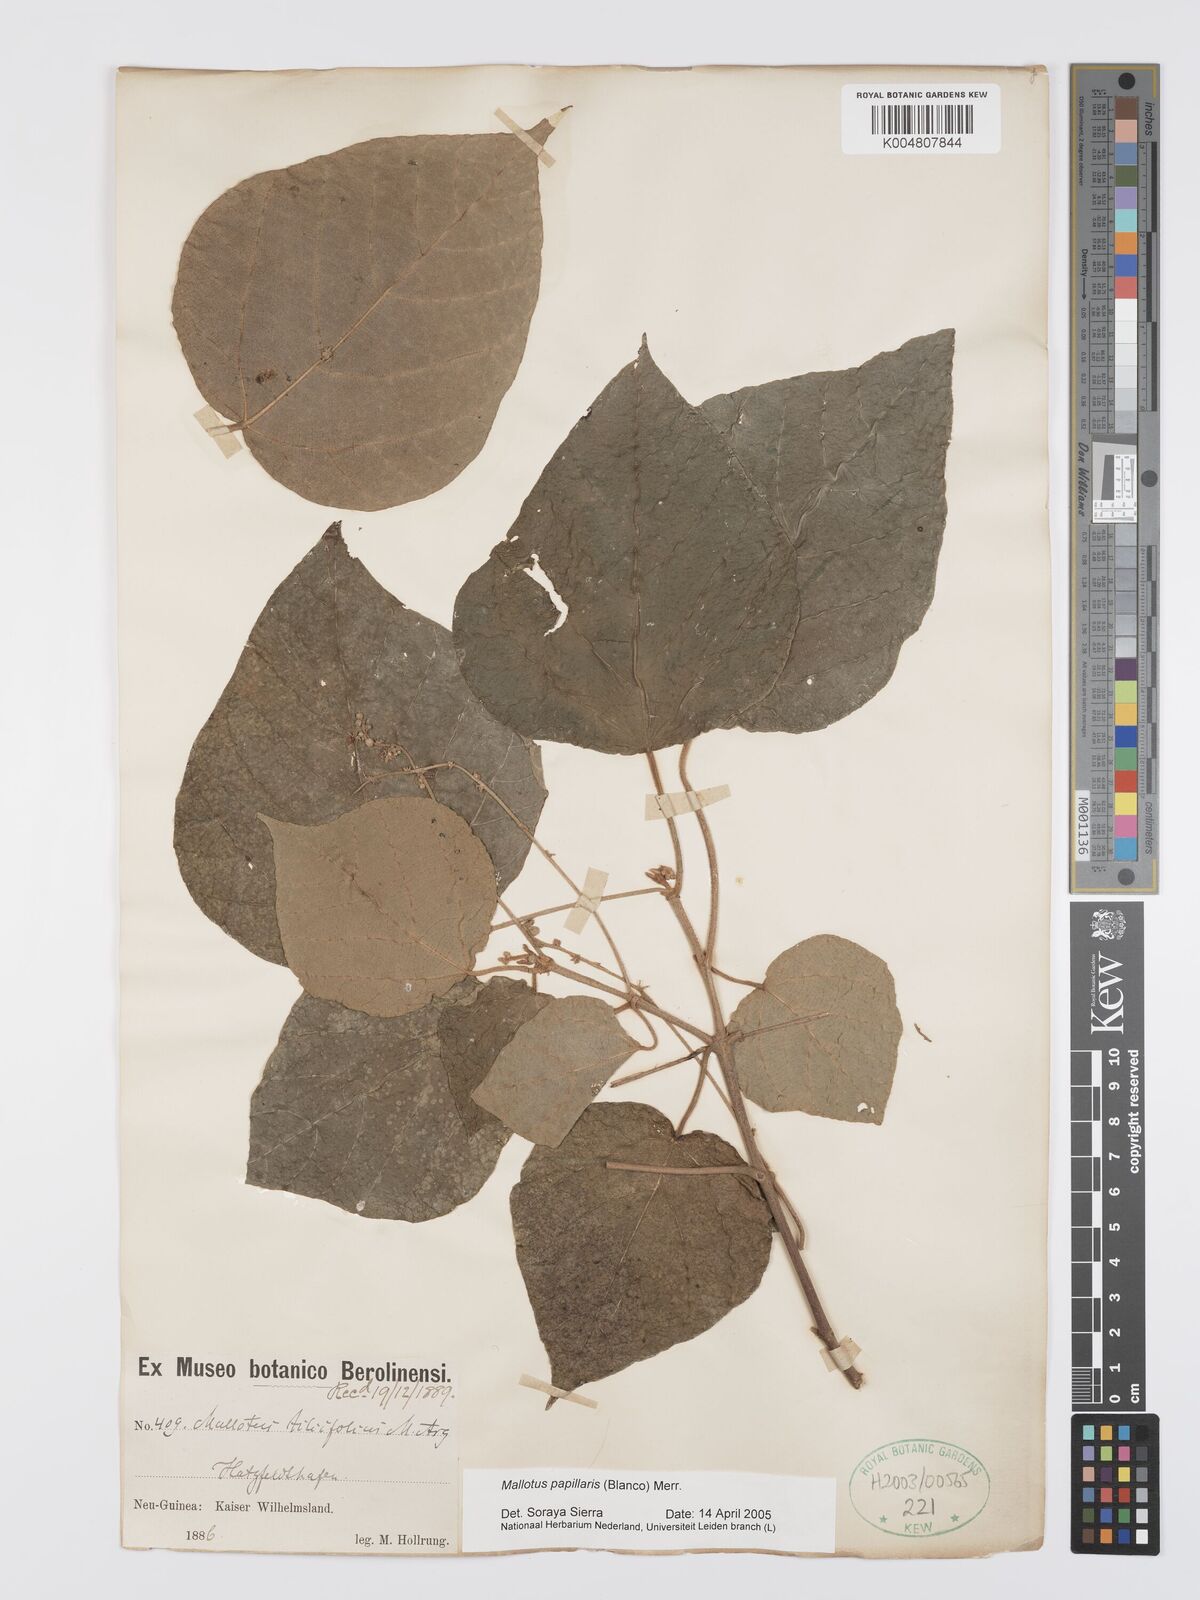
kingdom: Plantae
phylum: Tracheophyta
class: Magnoliopsida
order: Malpighiales
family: Euphorbiaceae
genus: Mallotus
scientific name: Mallotus tiliifolius
